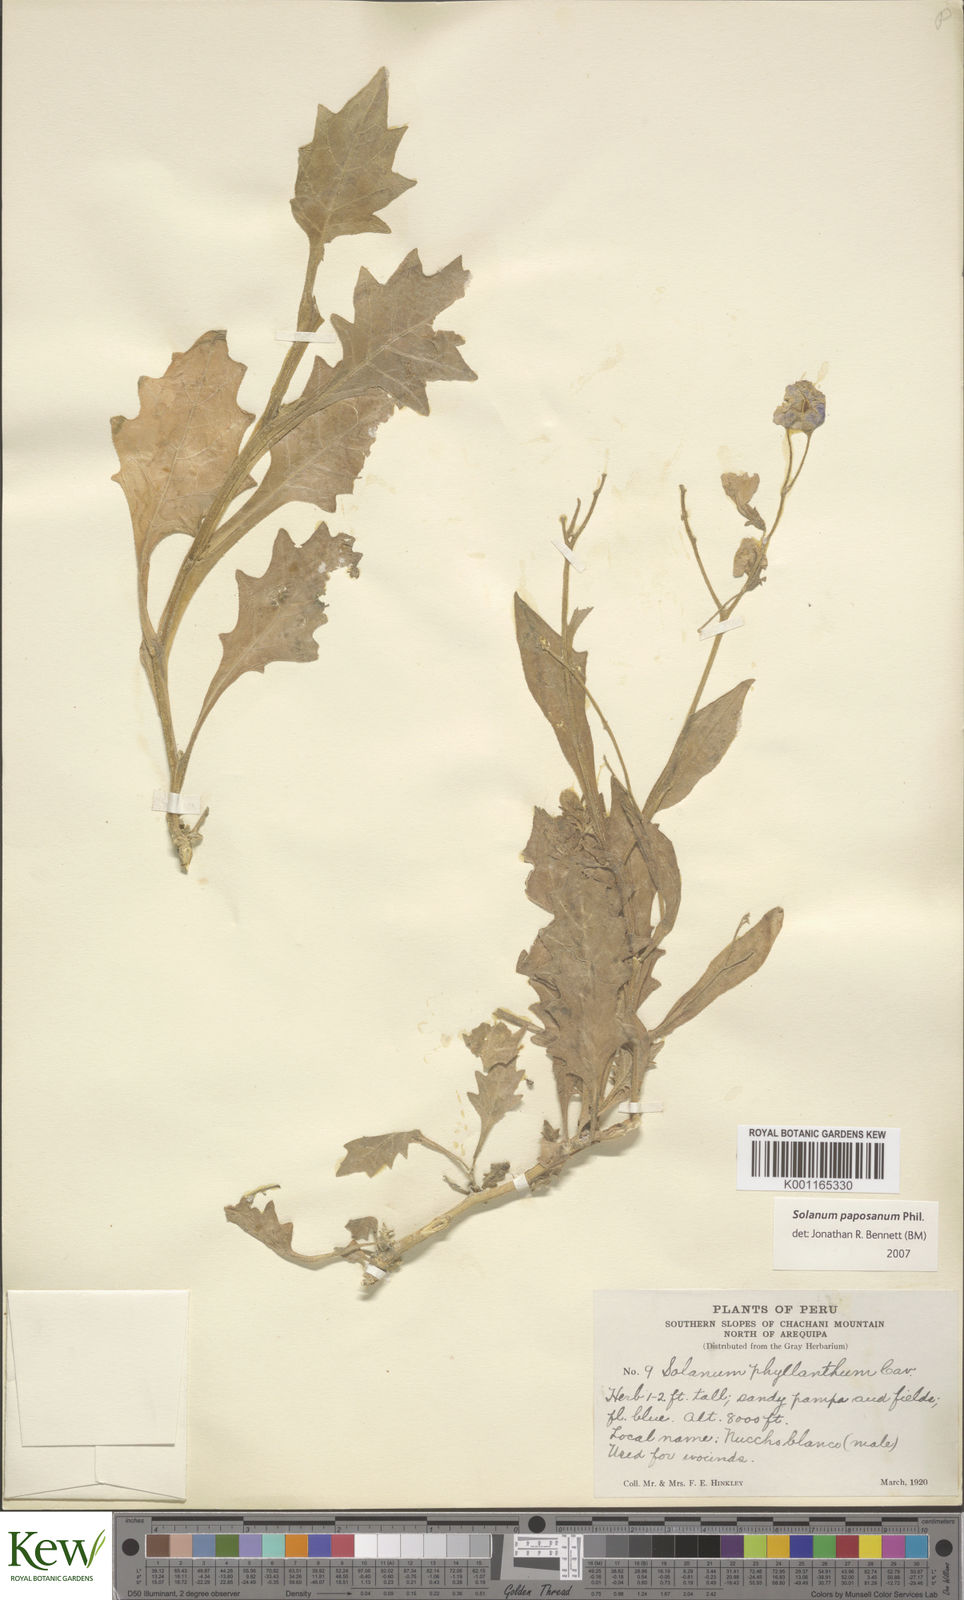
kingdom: Plantae
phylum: Tracheophyta
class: Magnoliopsida
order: Solanales
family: Solanaceae
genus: Solanum
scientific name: Solanum paposanum
